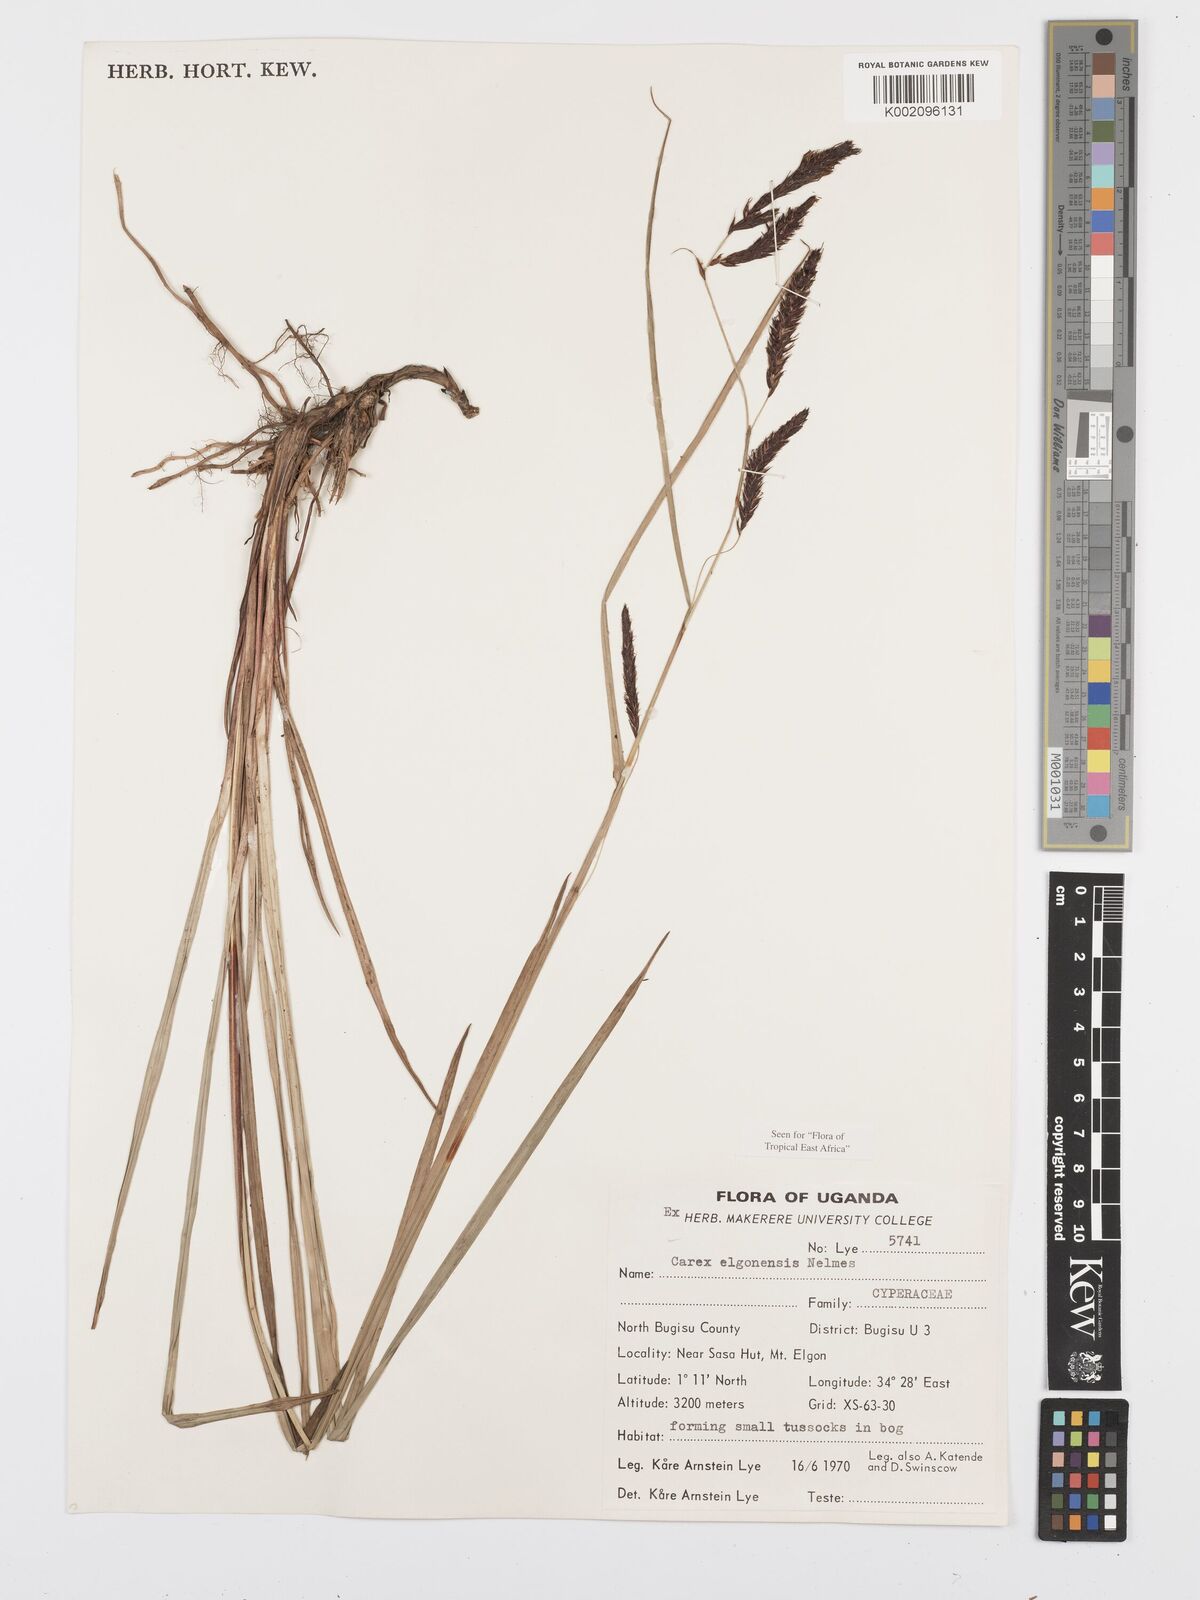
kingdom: Plantae
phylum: Tracheophyta
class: Liliopsida
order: Poales
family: Cyperaceae
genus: Carex
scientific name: Carex elgonensis
